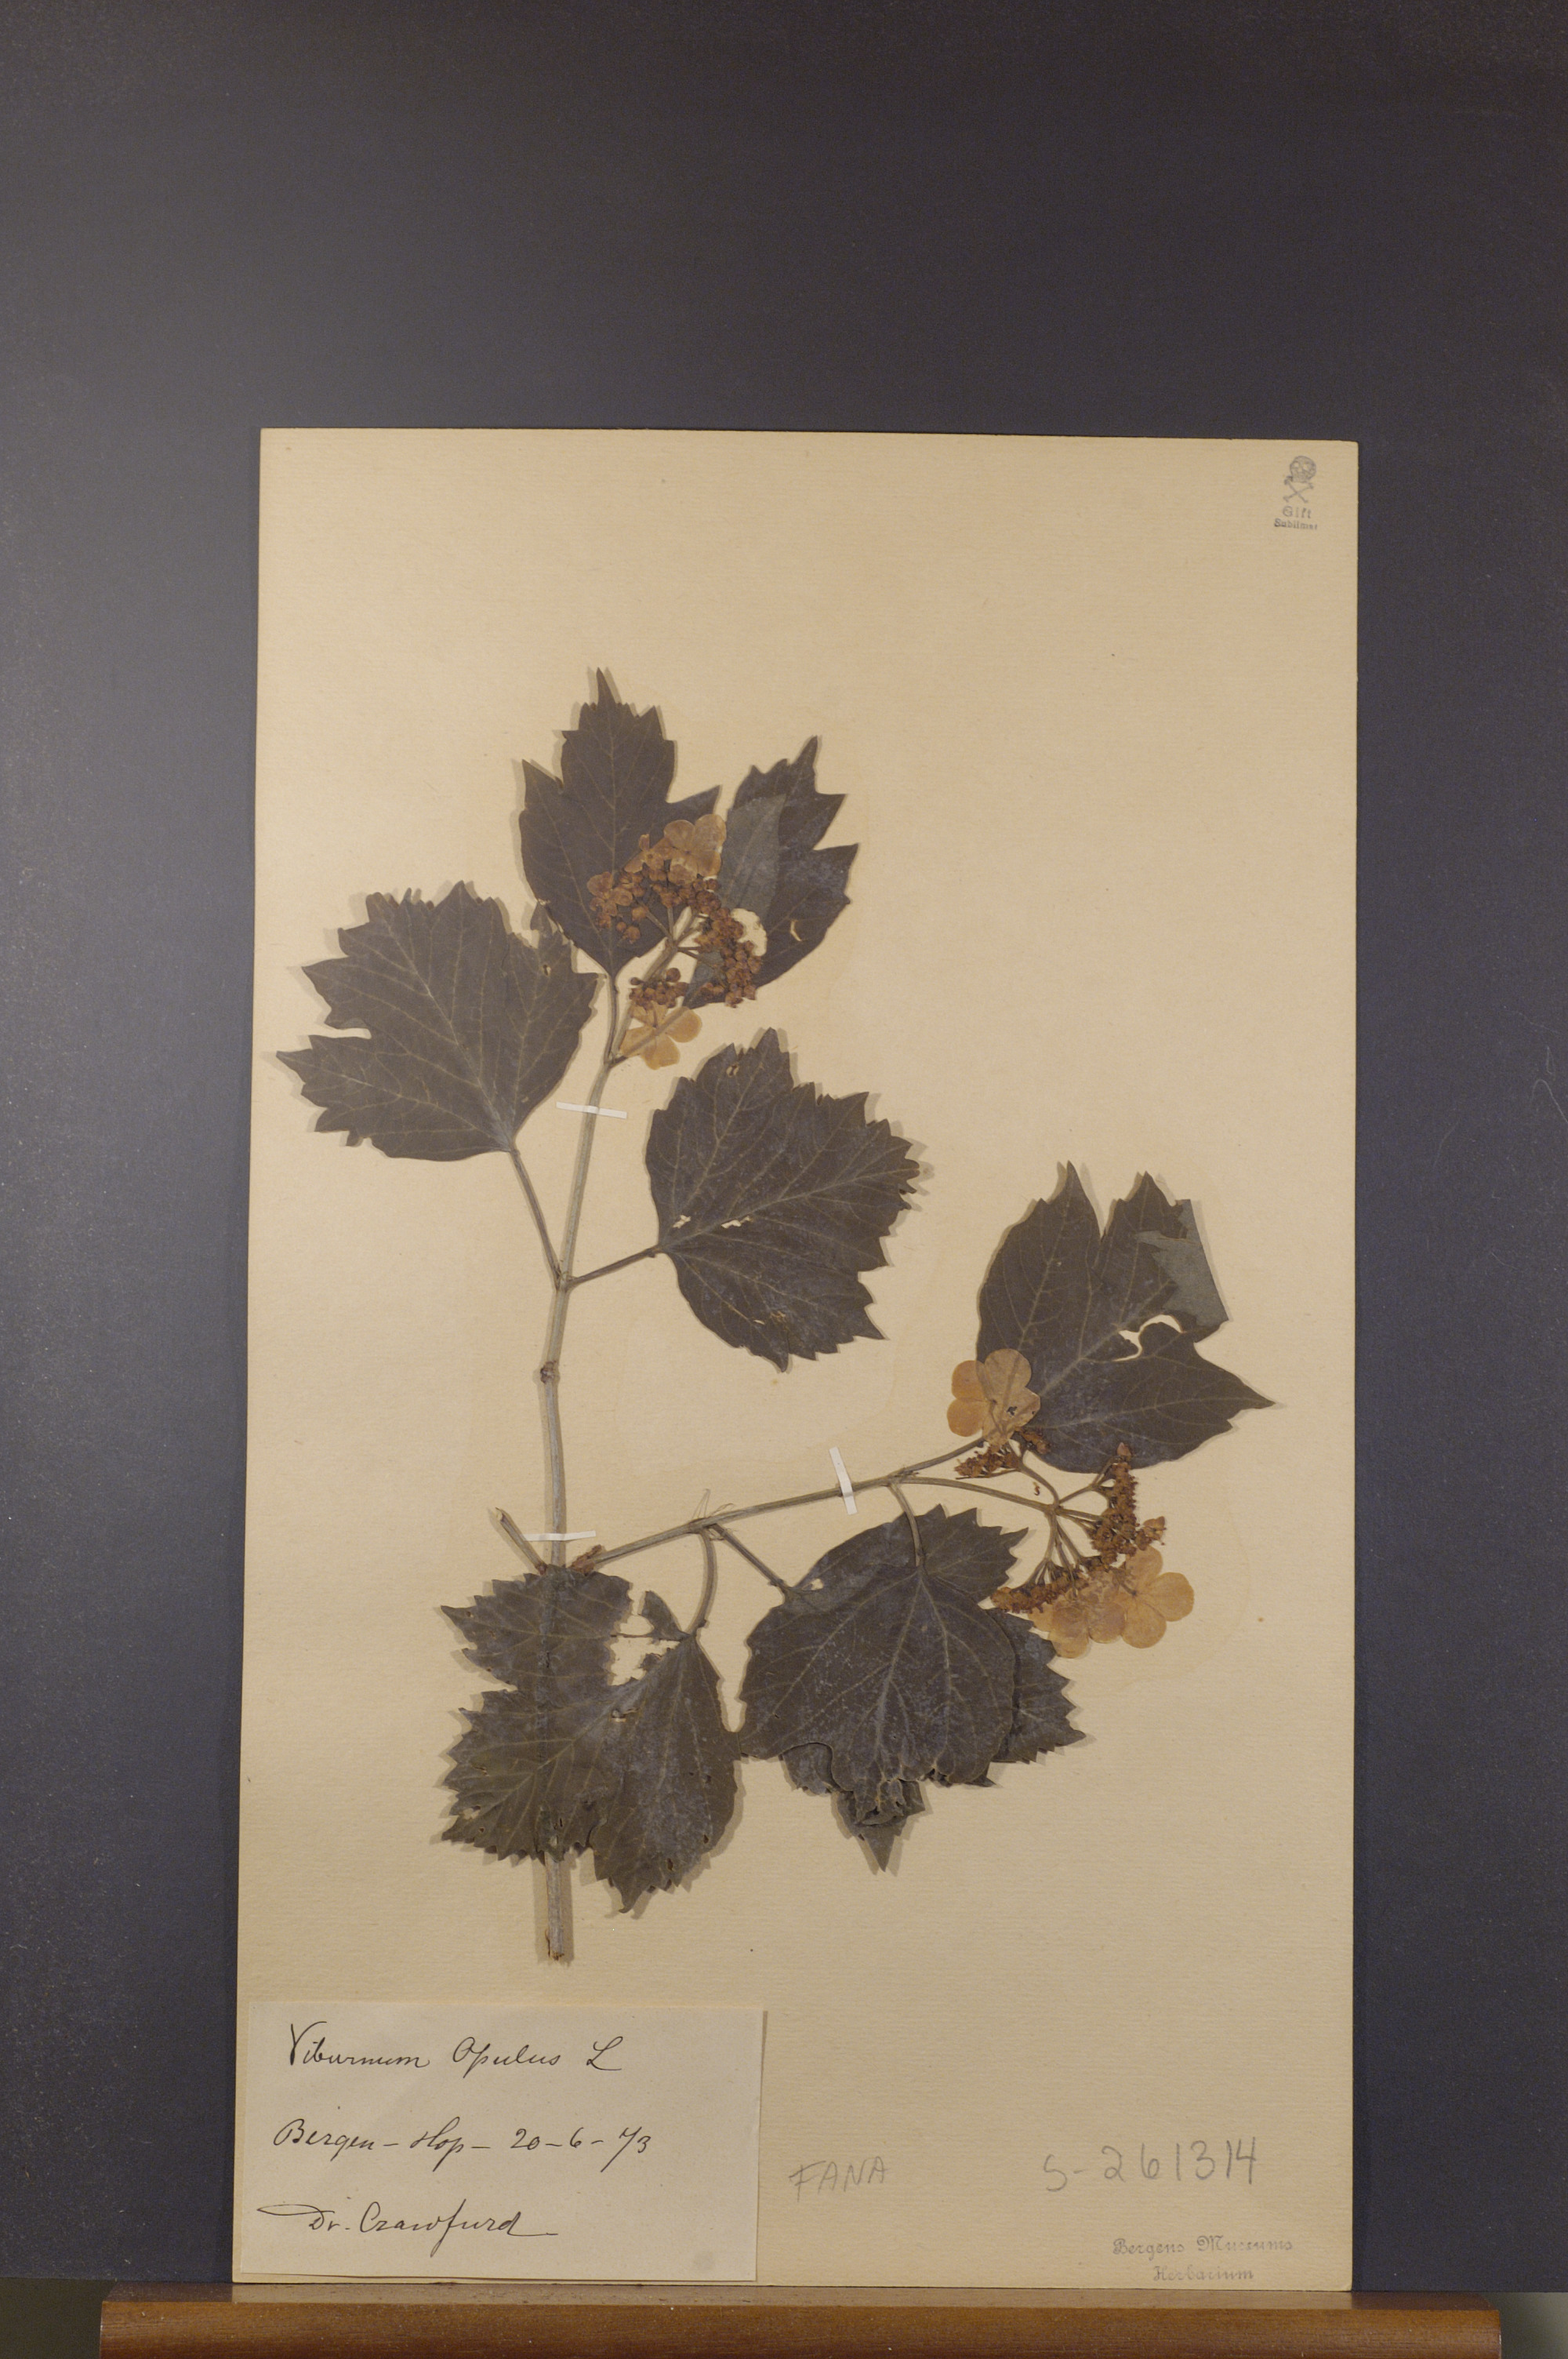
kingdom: Plantae
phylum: Tracheophyta
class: Magnoliopsida
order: Dipsacales
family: Viburnaceae
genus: Viburnum
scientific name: Viburnum opulus
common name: Guelder-rose
